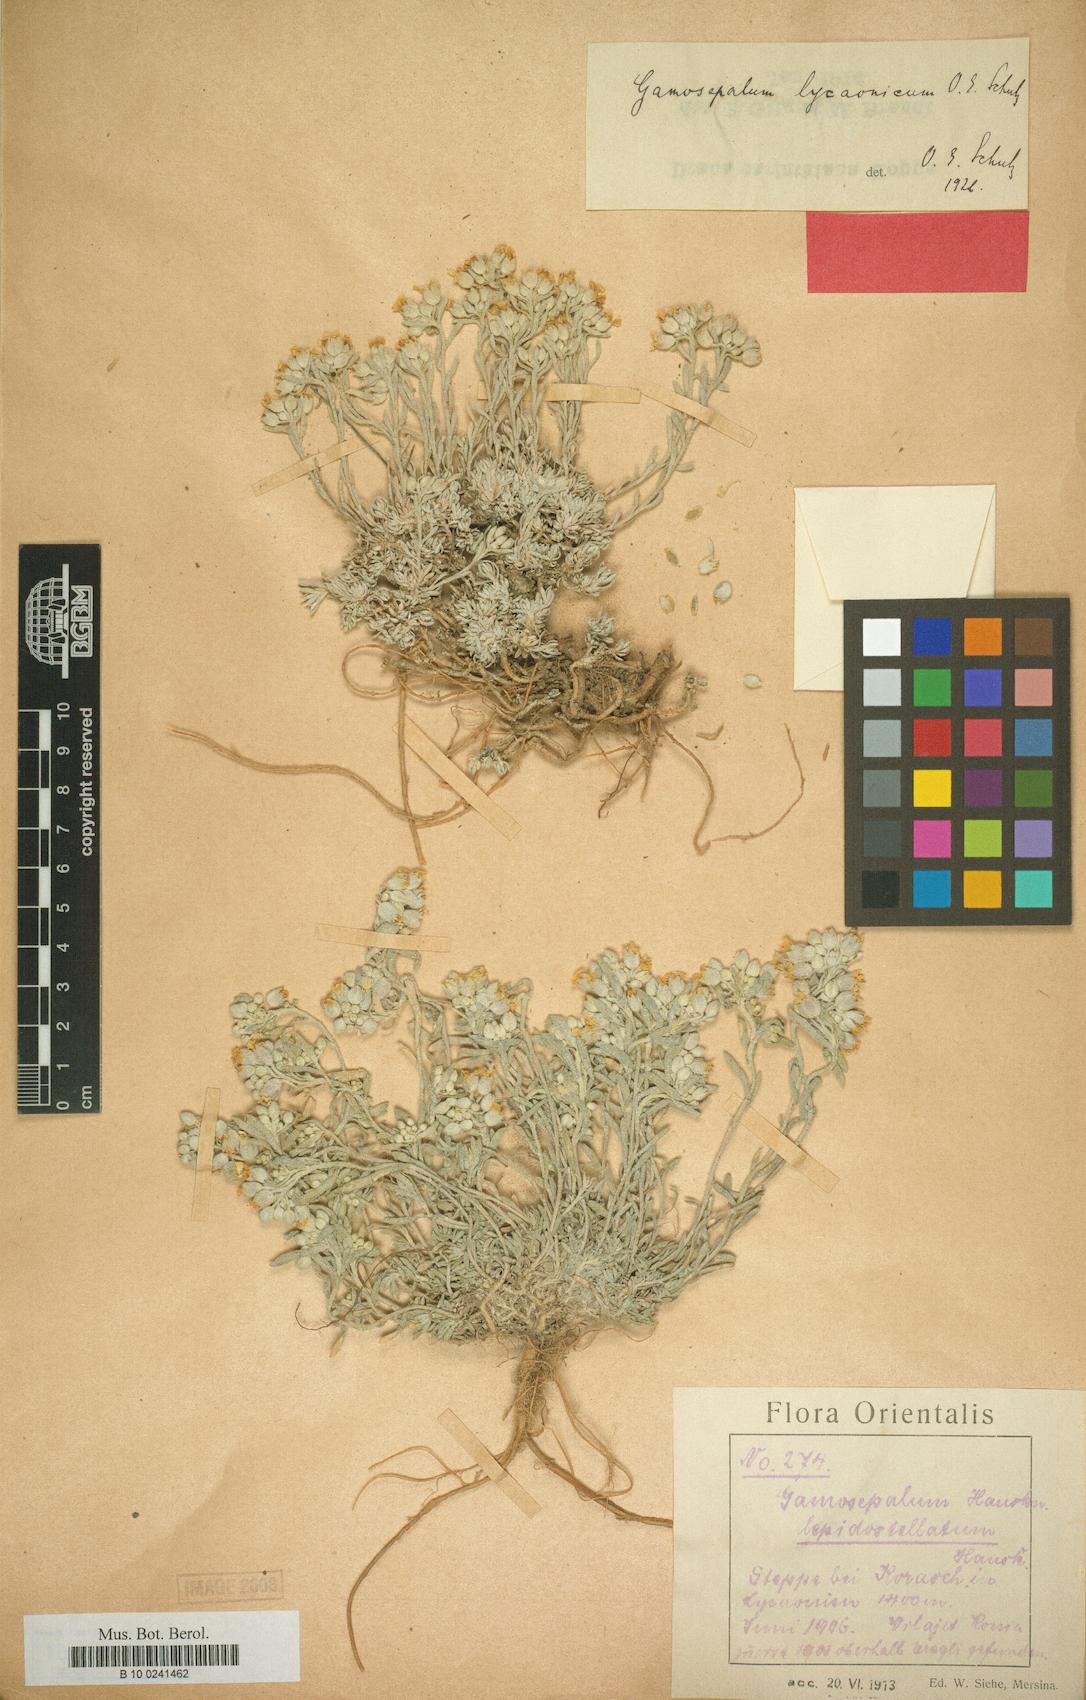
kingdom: Plantae
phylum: Tracheophyta
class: Magnoliopsida
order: Brassicales
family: Brassicaceae
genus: Alyssum
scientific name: Alyssum lycaonicum
